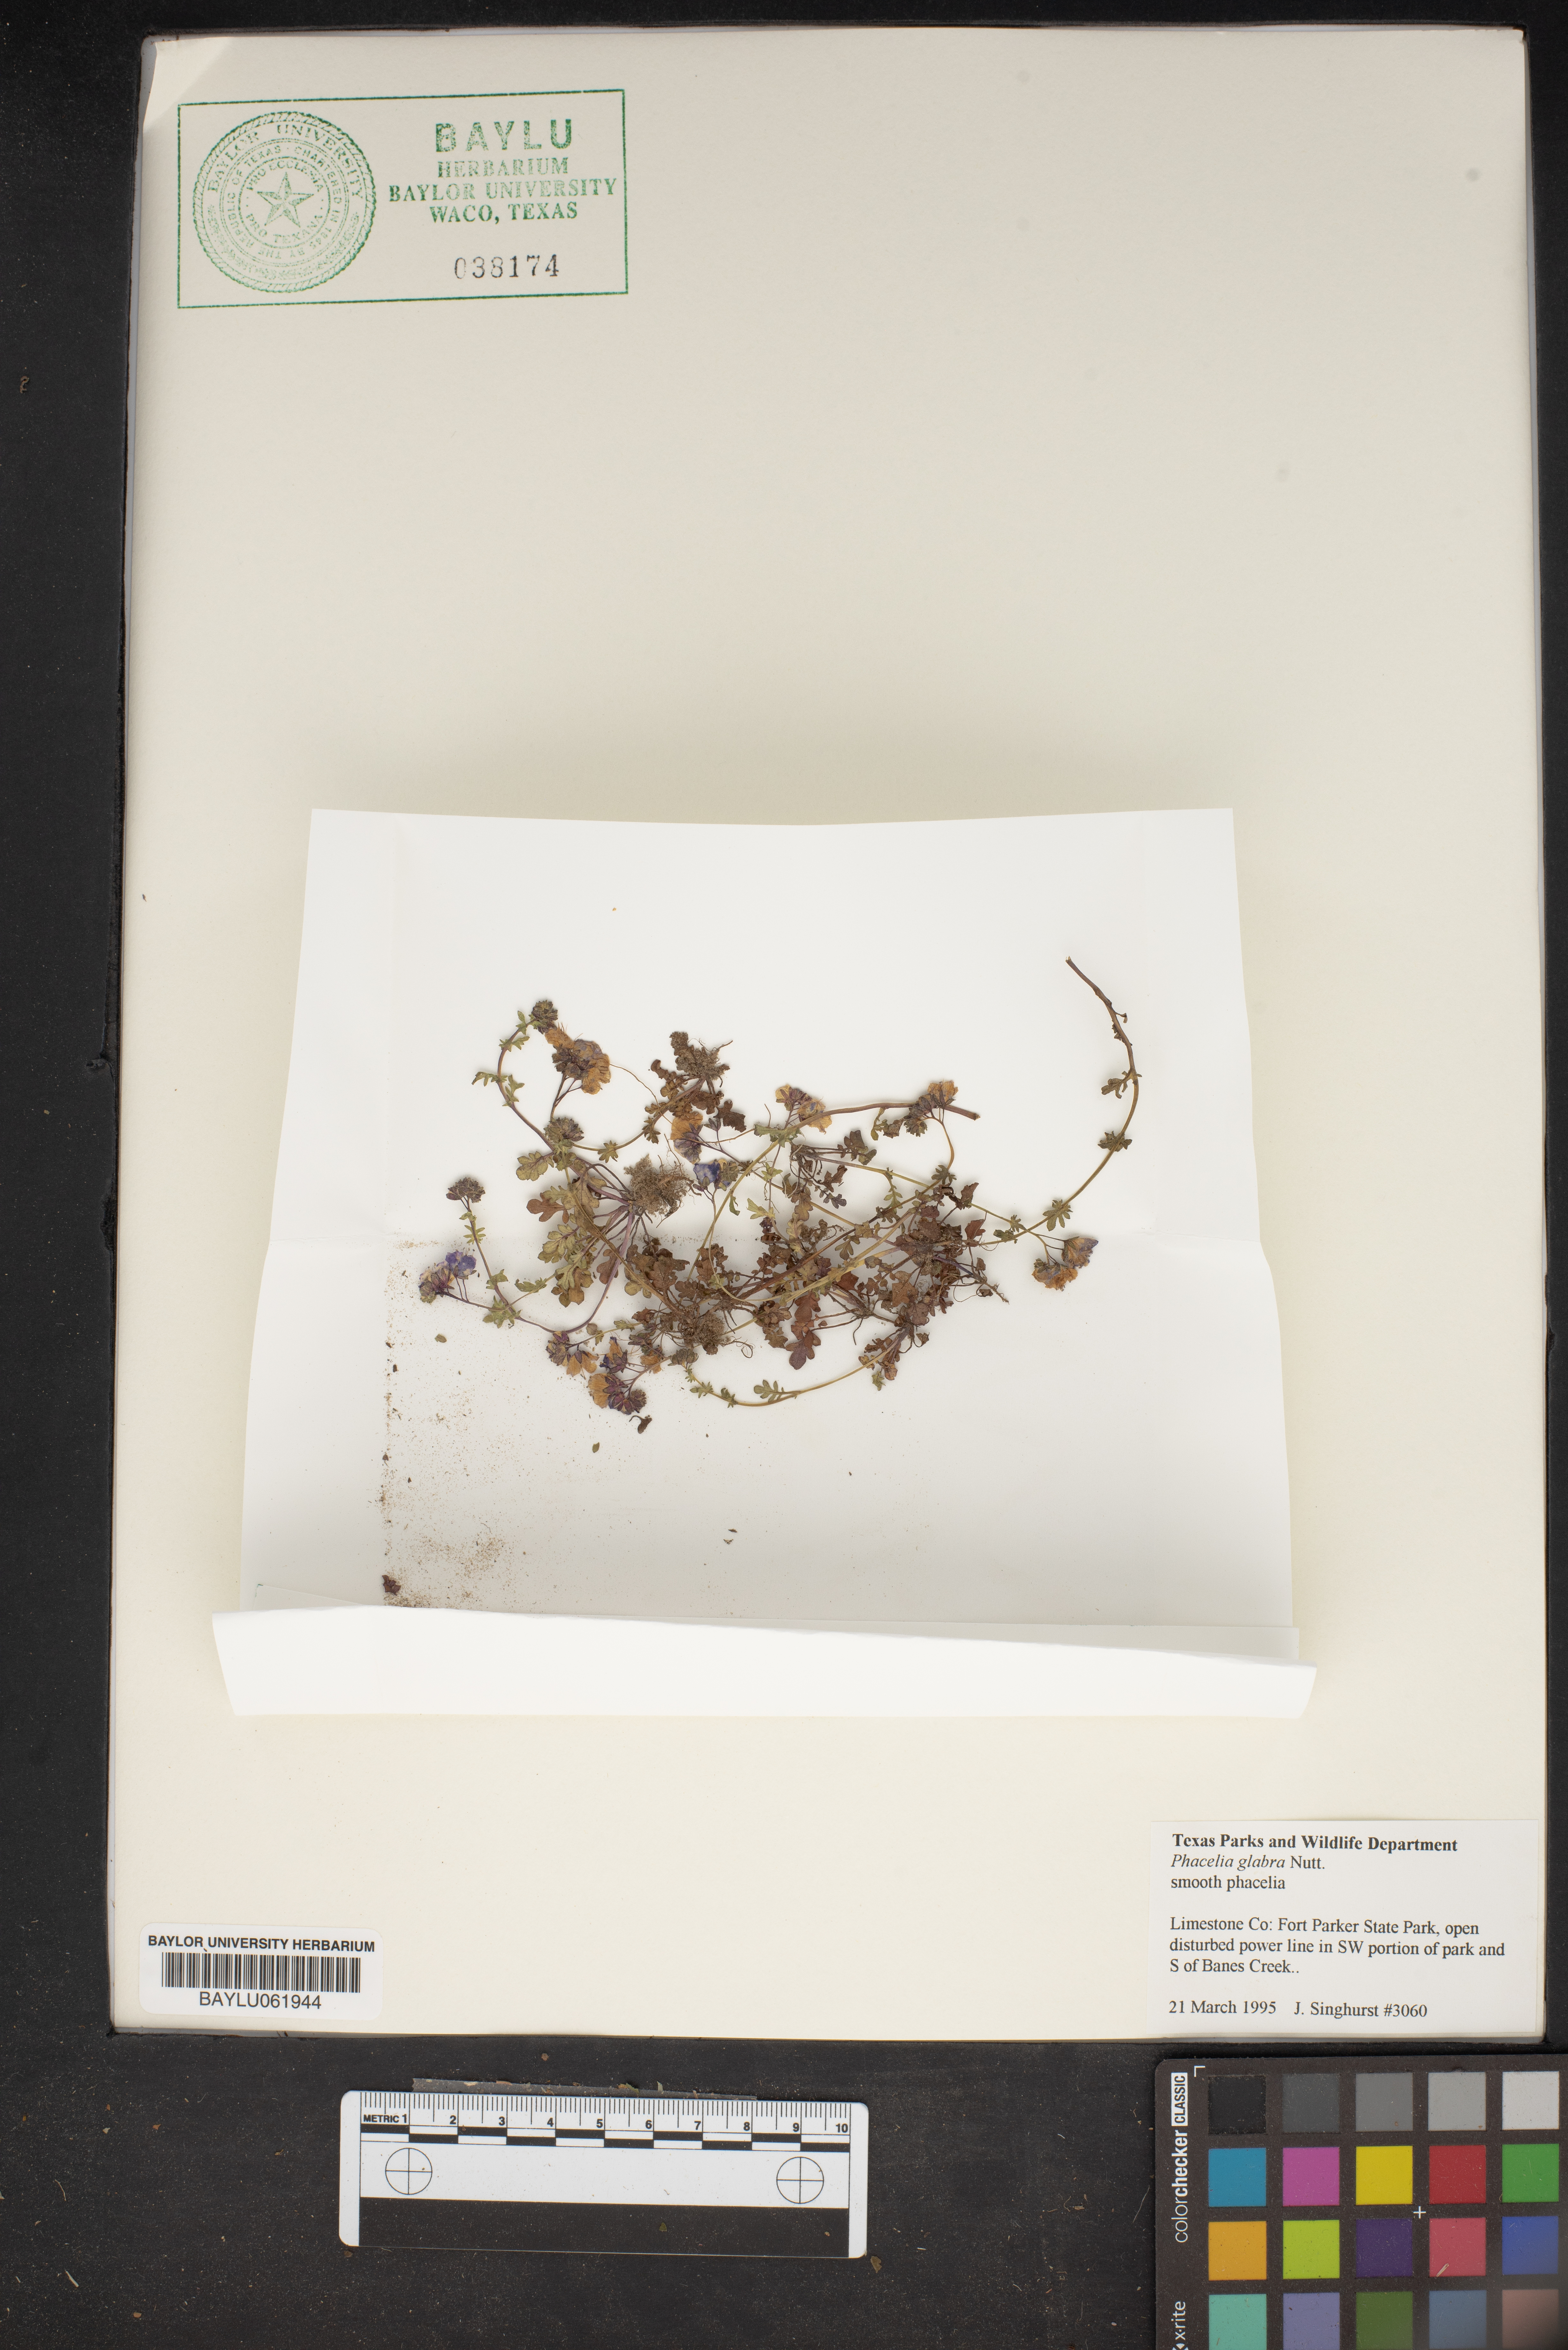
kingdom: Plantae
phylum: Tracheophyta
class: Magnoliopsida
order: Boraginales
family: Hydrophyllaceae
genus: Phacelia
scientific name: Phacelia glabra
